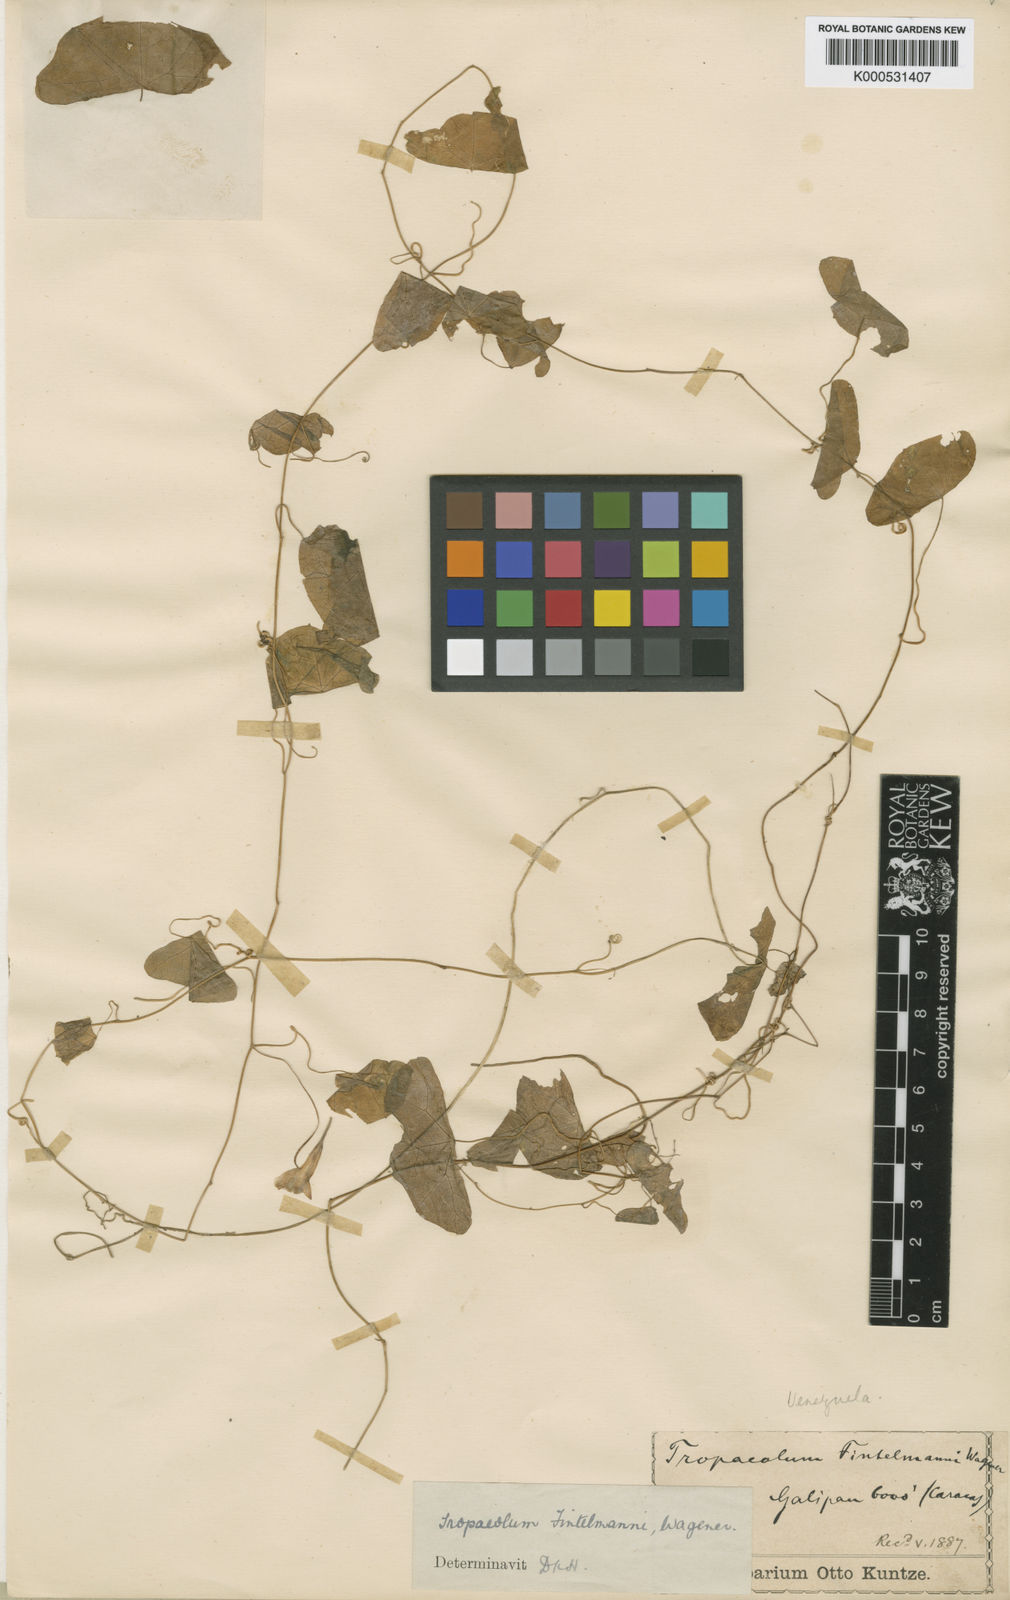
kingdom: Plantae
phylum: Tracheophyta
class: Magnoliopsida
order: Brassicales
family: Tropaeolaceae
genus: Tropaeolum
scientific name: Tropaeolum fintelmannii
